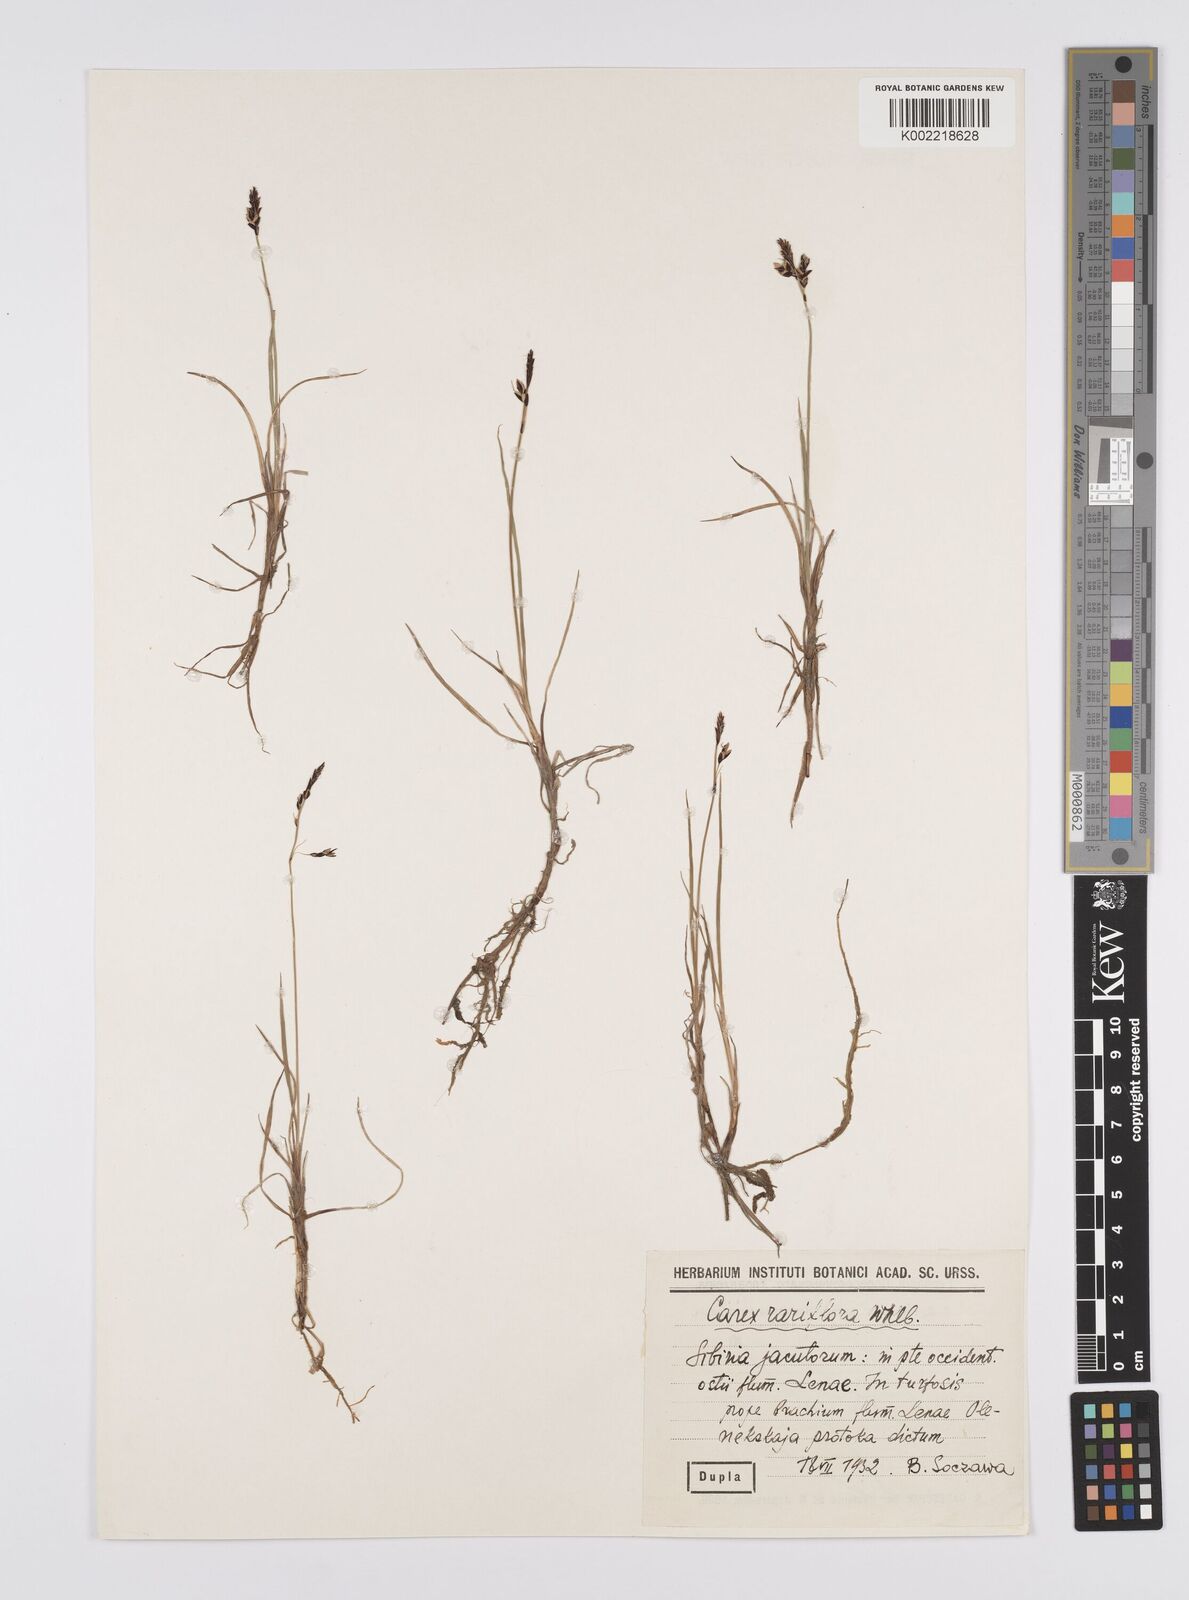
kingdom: Plantae
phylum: Tracheophyta
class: Liliopsida
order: Poales
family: Cyperaceae
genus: Carex
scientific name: Carex rariflora
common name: Loose-flowered alpine sedge
